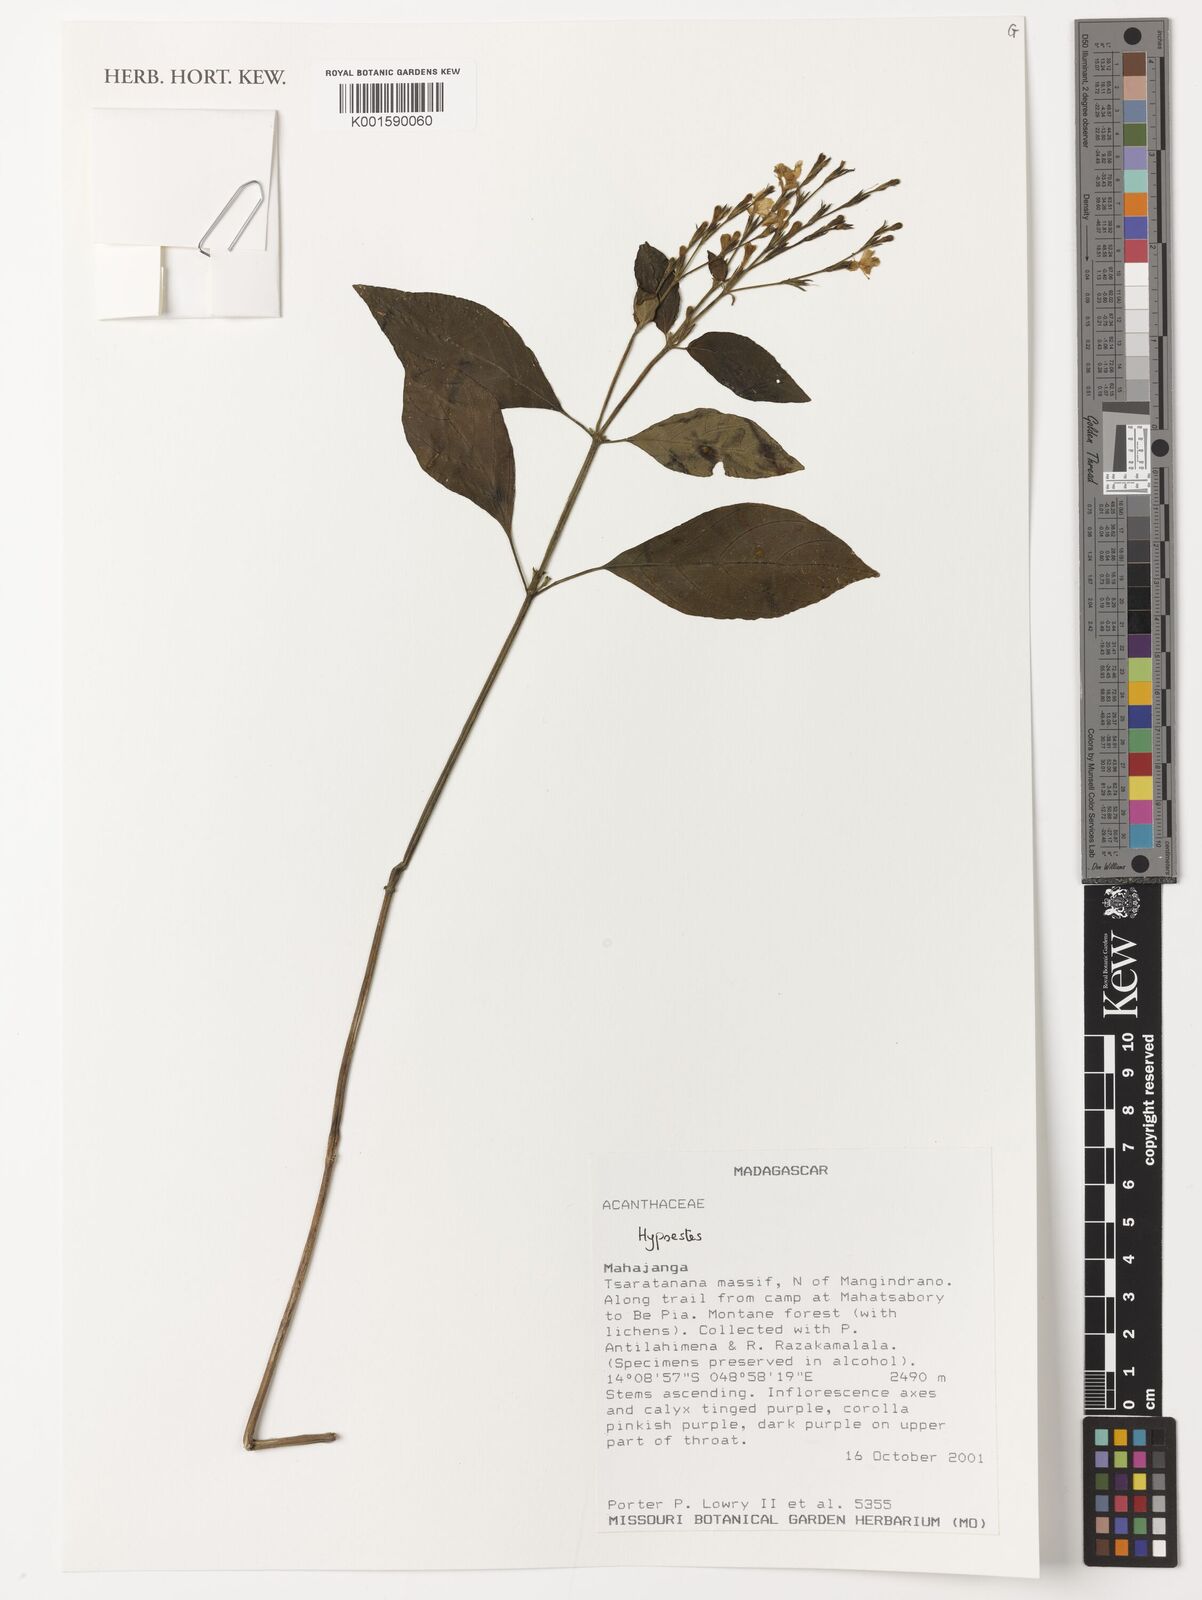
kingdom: Plantae
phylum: Tracheophyta
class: Magnoliopsida
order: Lamiales
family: Acanthaceae
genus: Hypoestes
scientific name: Hypoestes
